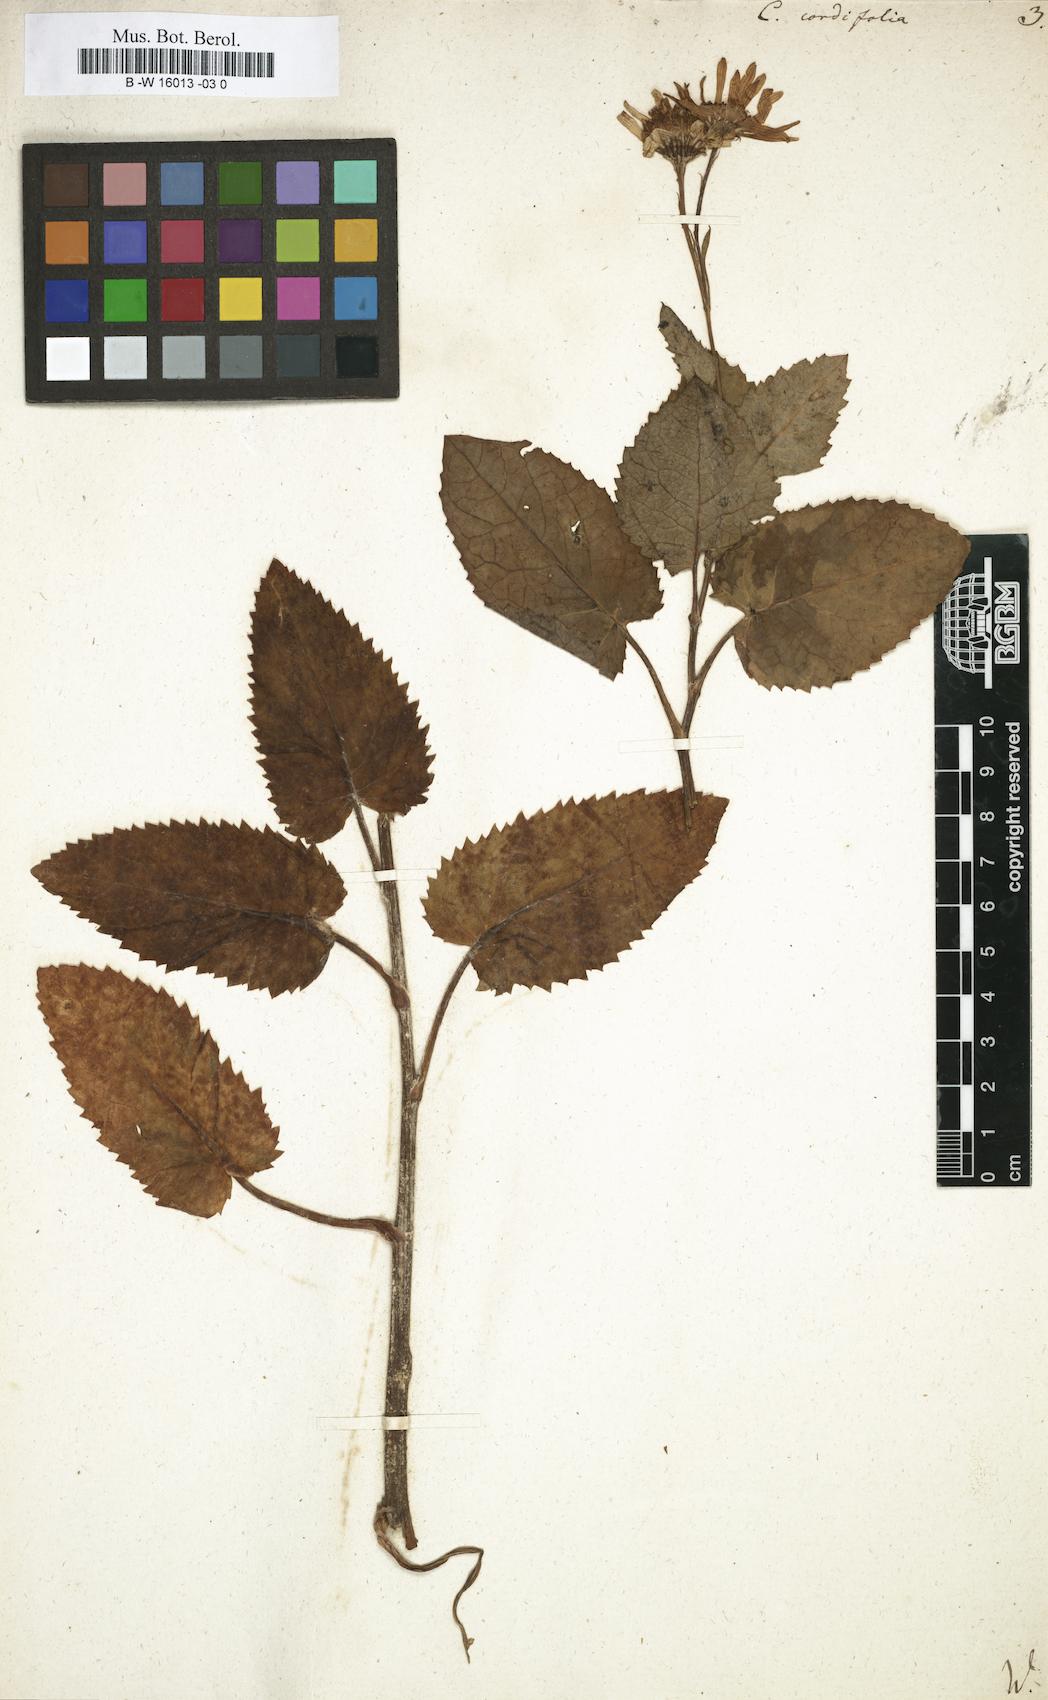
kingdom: Plantae
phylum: Tracheophyta
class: Magnoliopsida
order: Asterales
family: Asteraceae
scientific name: Asteraceae
